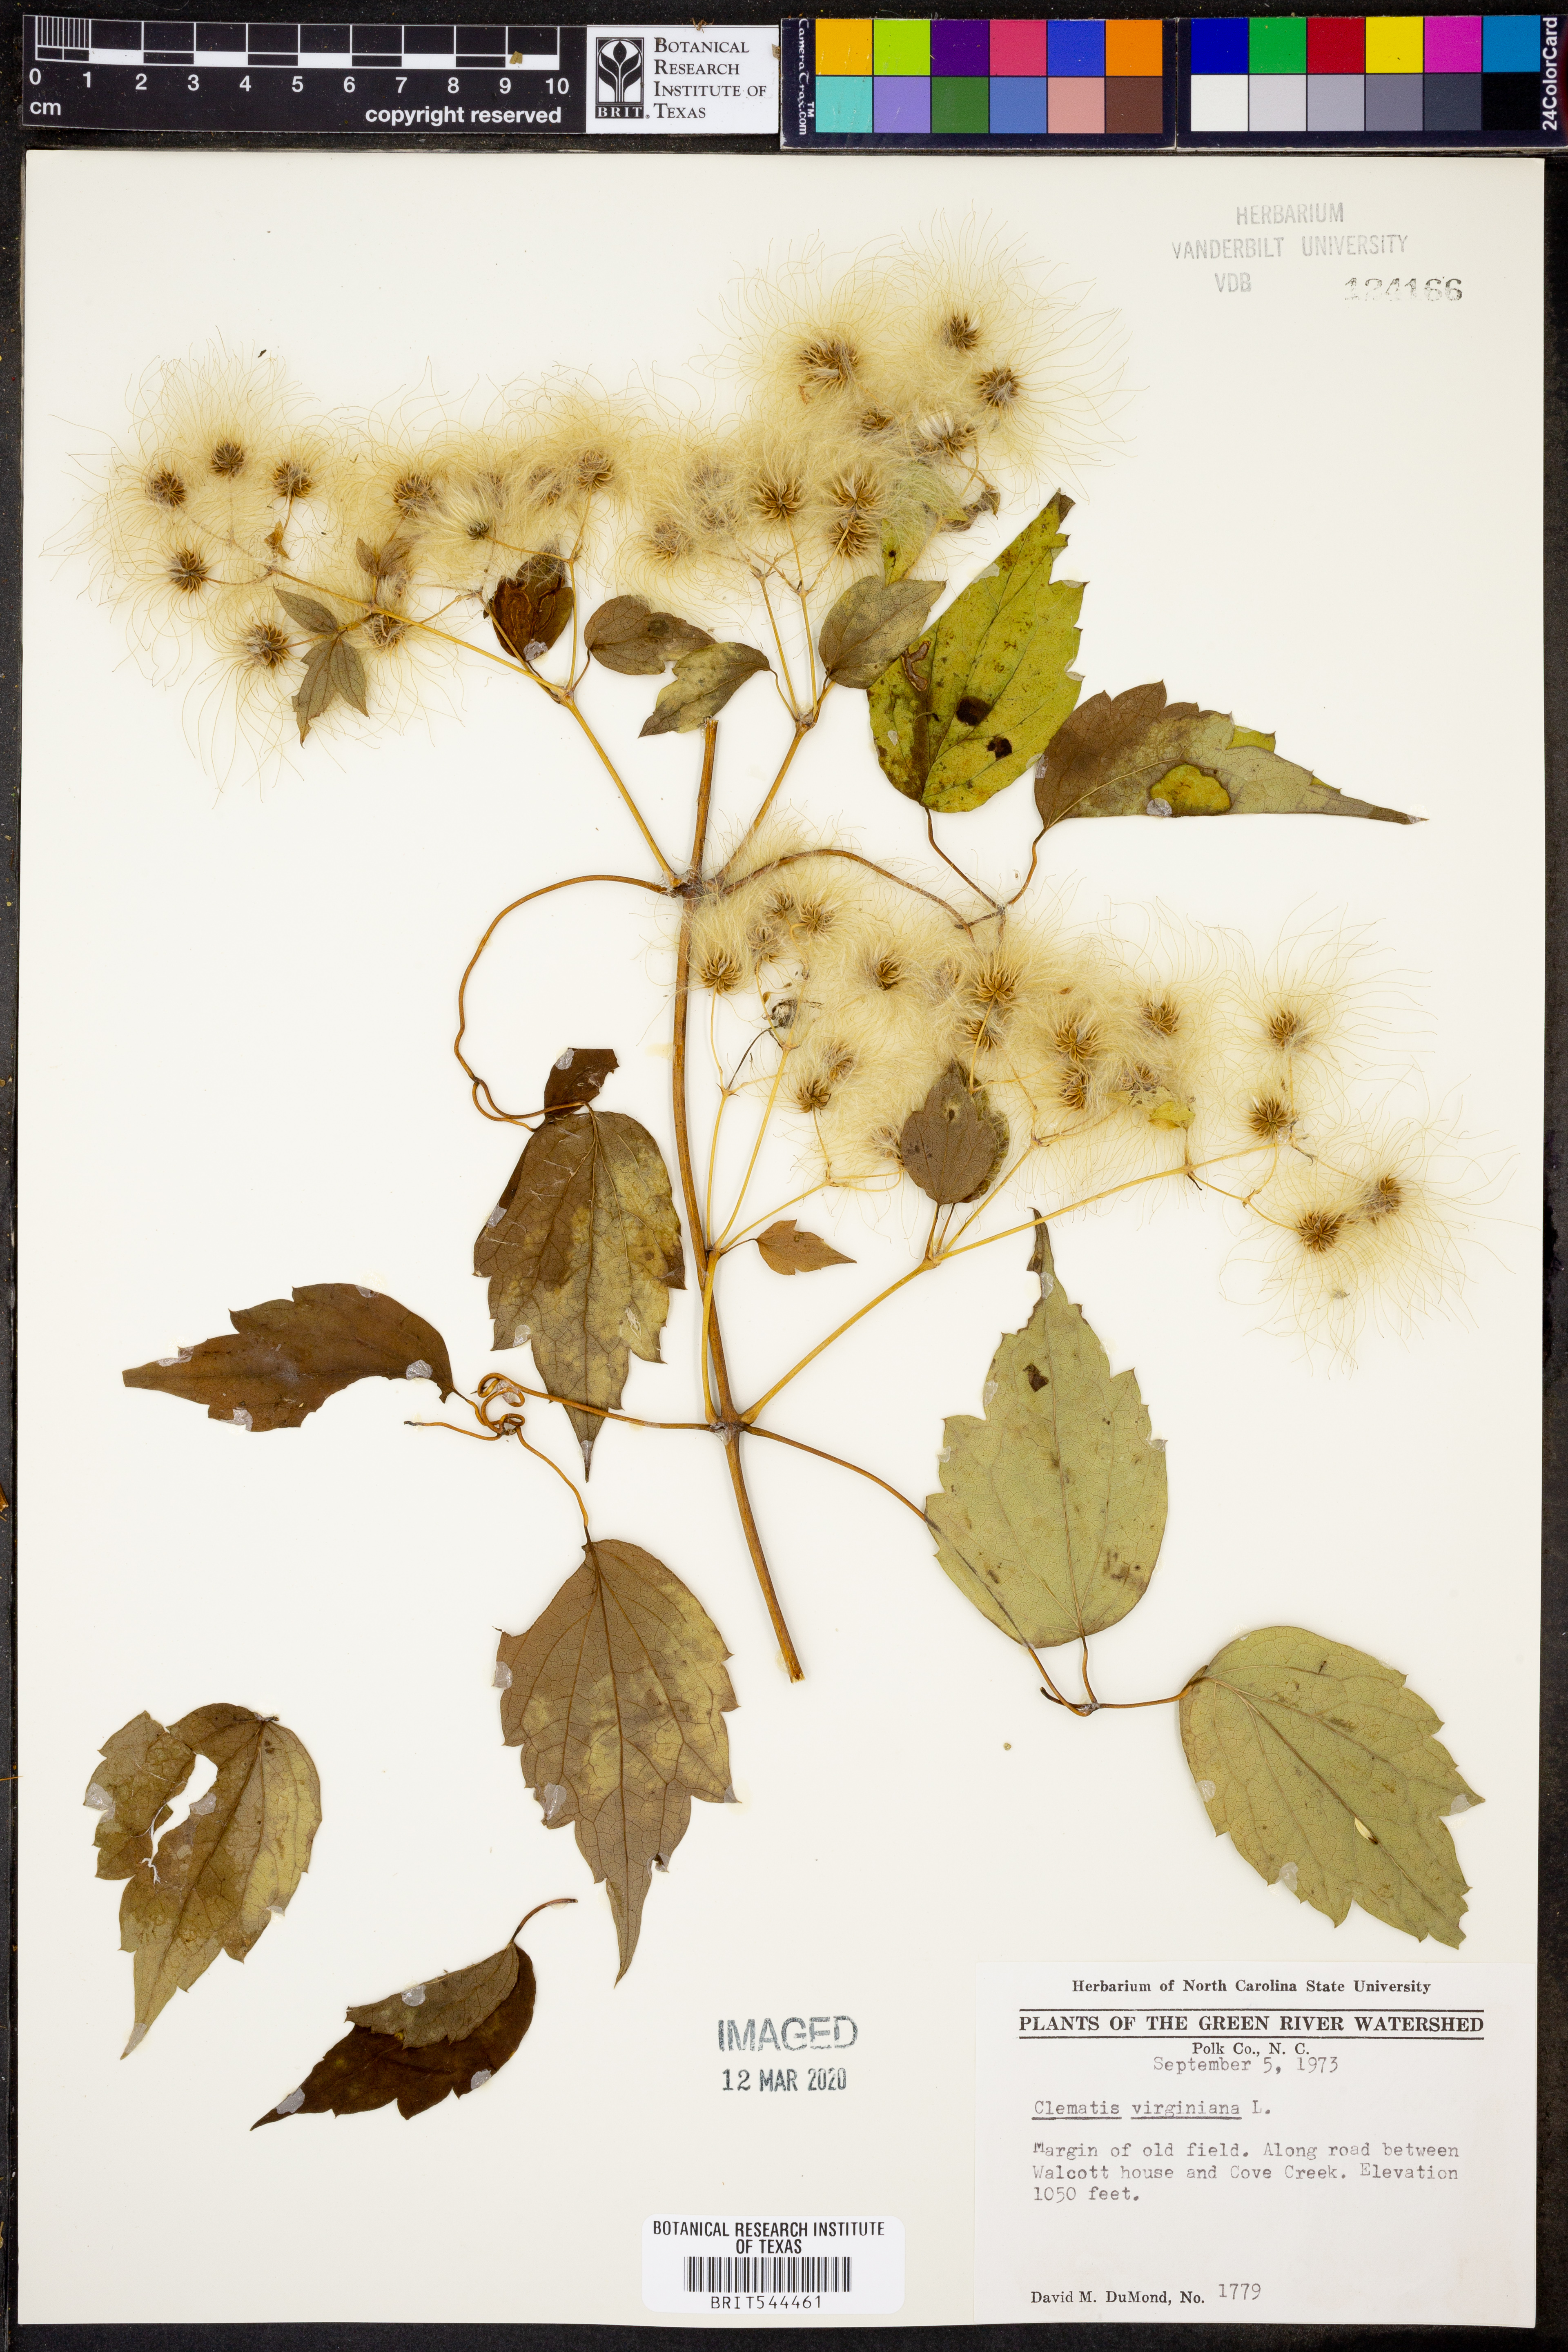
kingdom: Plantae
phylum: Tracheophyta
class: Magnoliopsida
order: Ranunculales
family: Ranunculaceae
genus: Clematis
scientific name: Clematis virginiana
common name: Virgin's-bower
